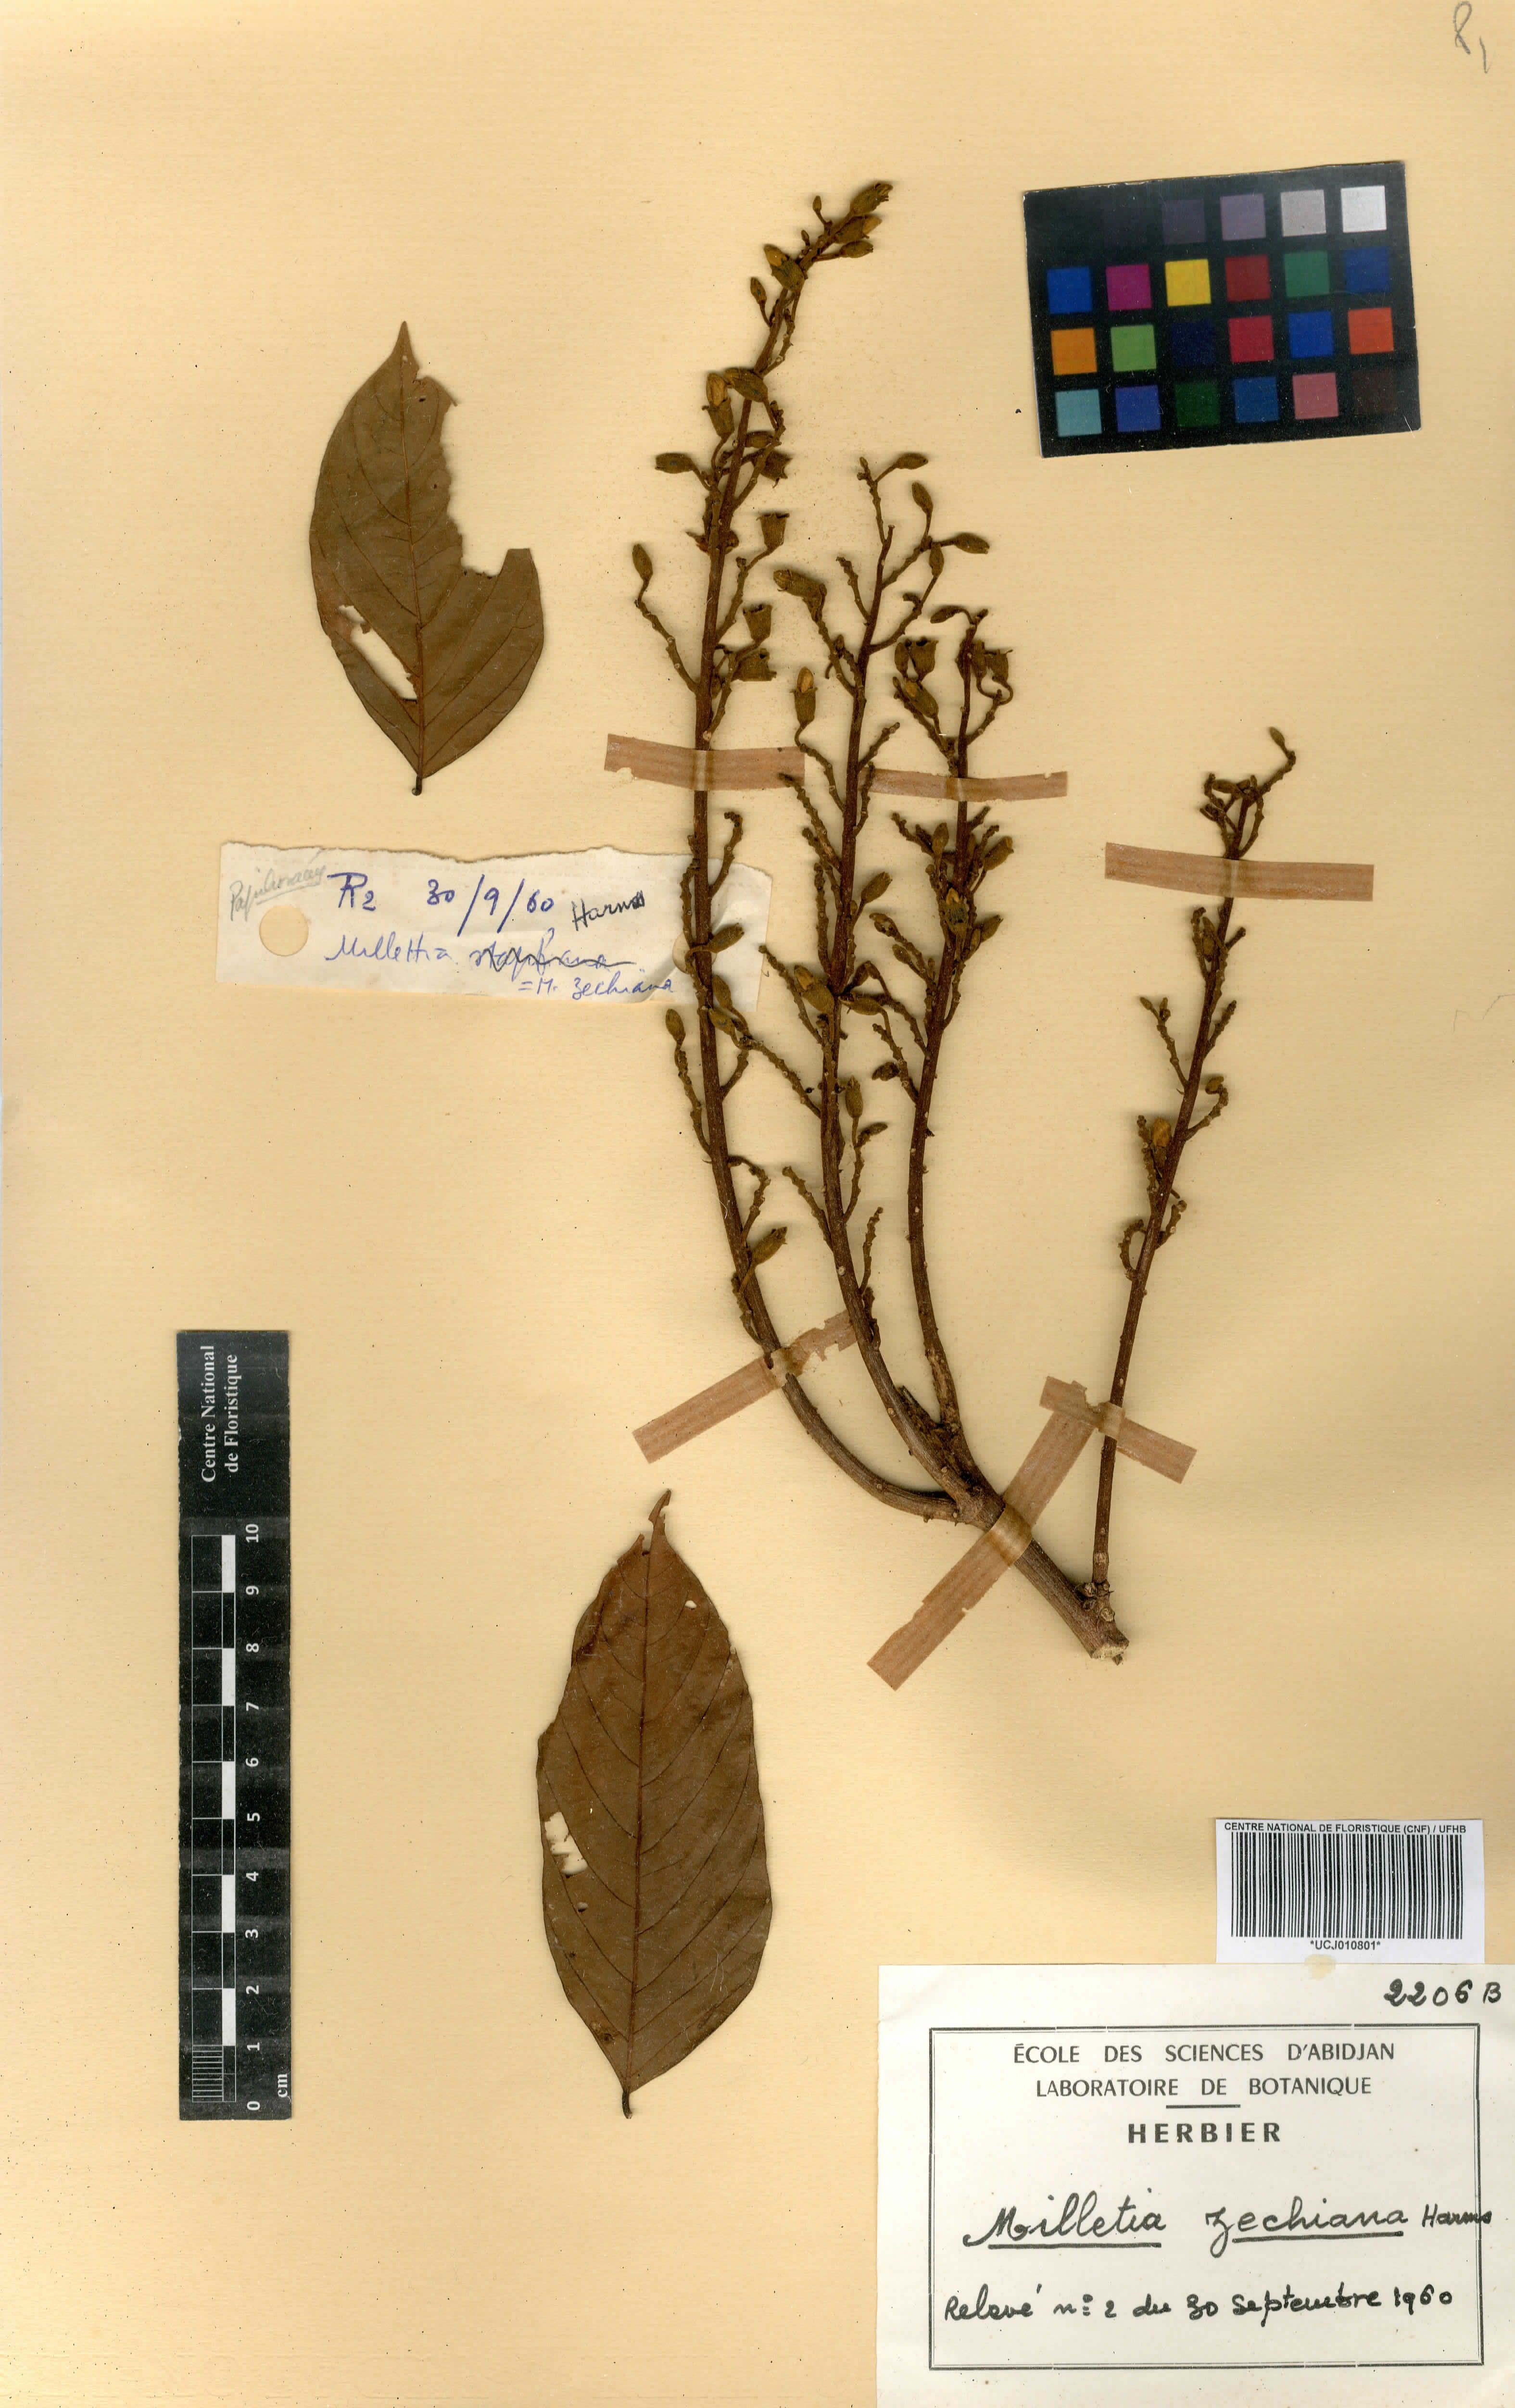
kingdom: Plantae
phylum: Tracheophyta
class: Magnoliopsida
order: Fabales
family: Fabaceae
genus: Millettia
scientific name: Millettia zechiana
